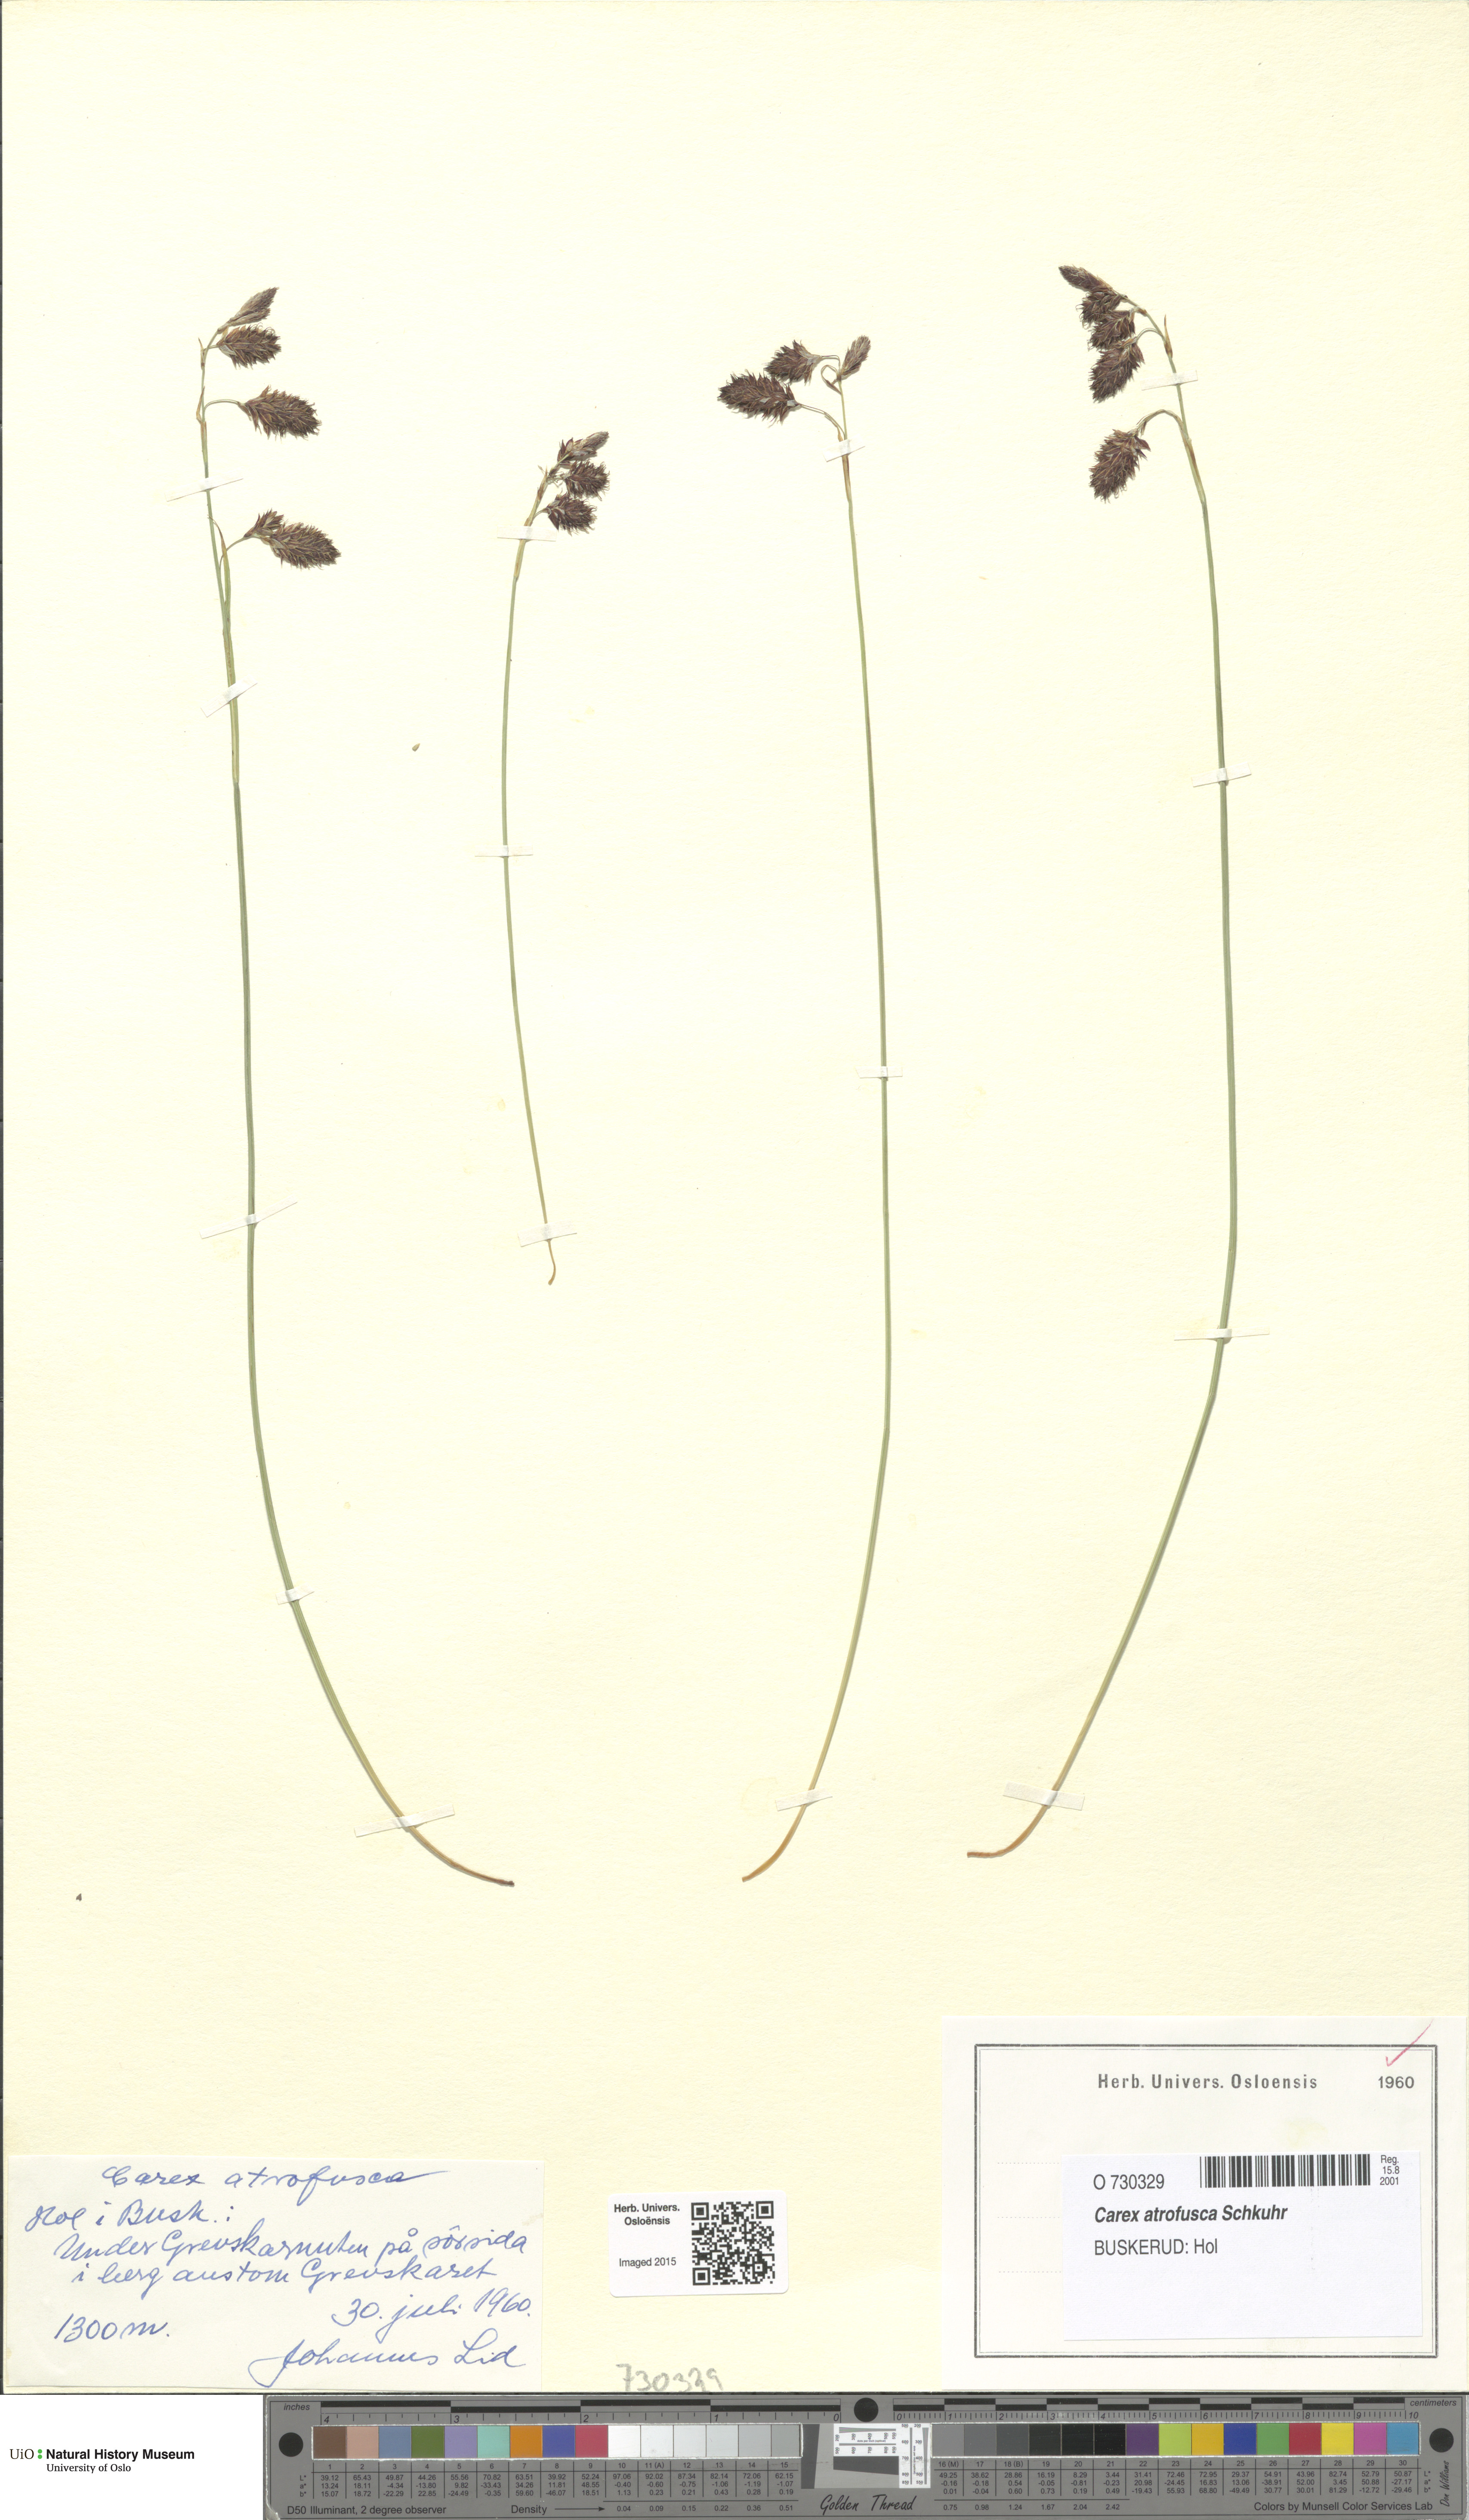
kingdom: Plantae
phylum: Tracheophyta
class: Liliopsida
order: Poales
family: Cyperaceae
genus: Carex
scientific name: Carex atrofusca
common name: Scorched alpine-sedge
